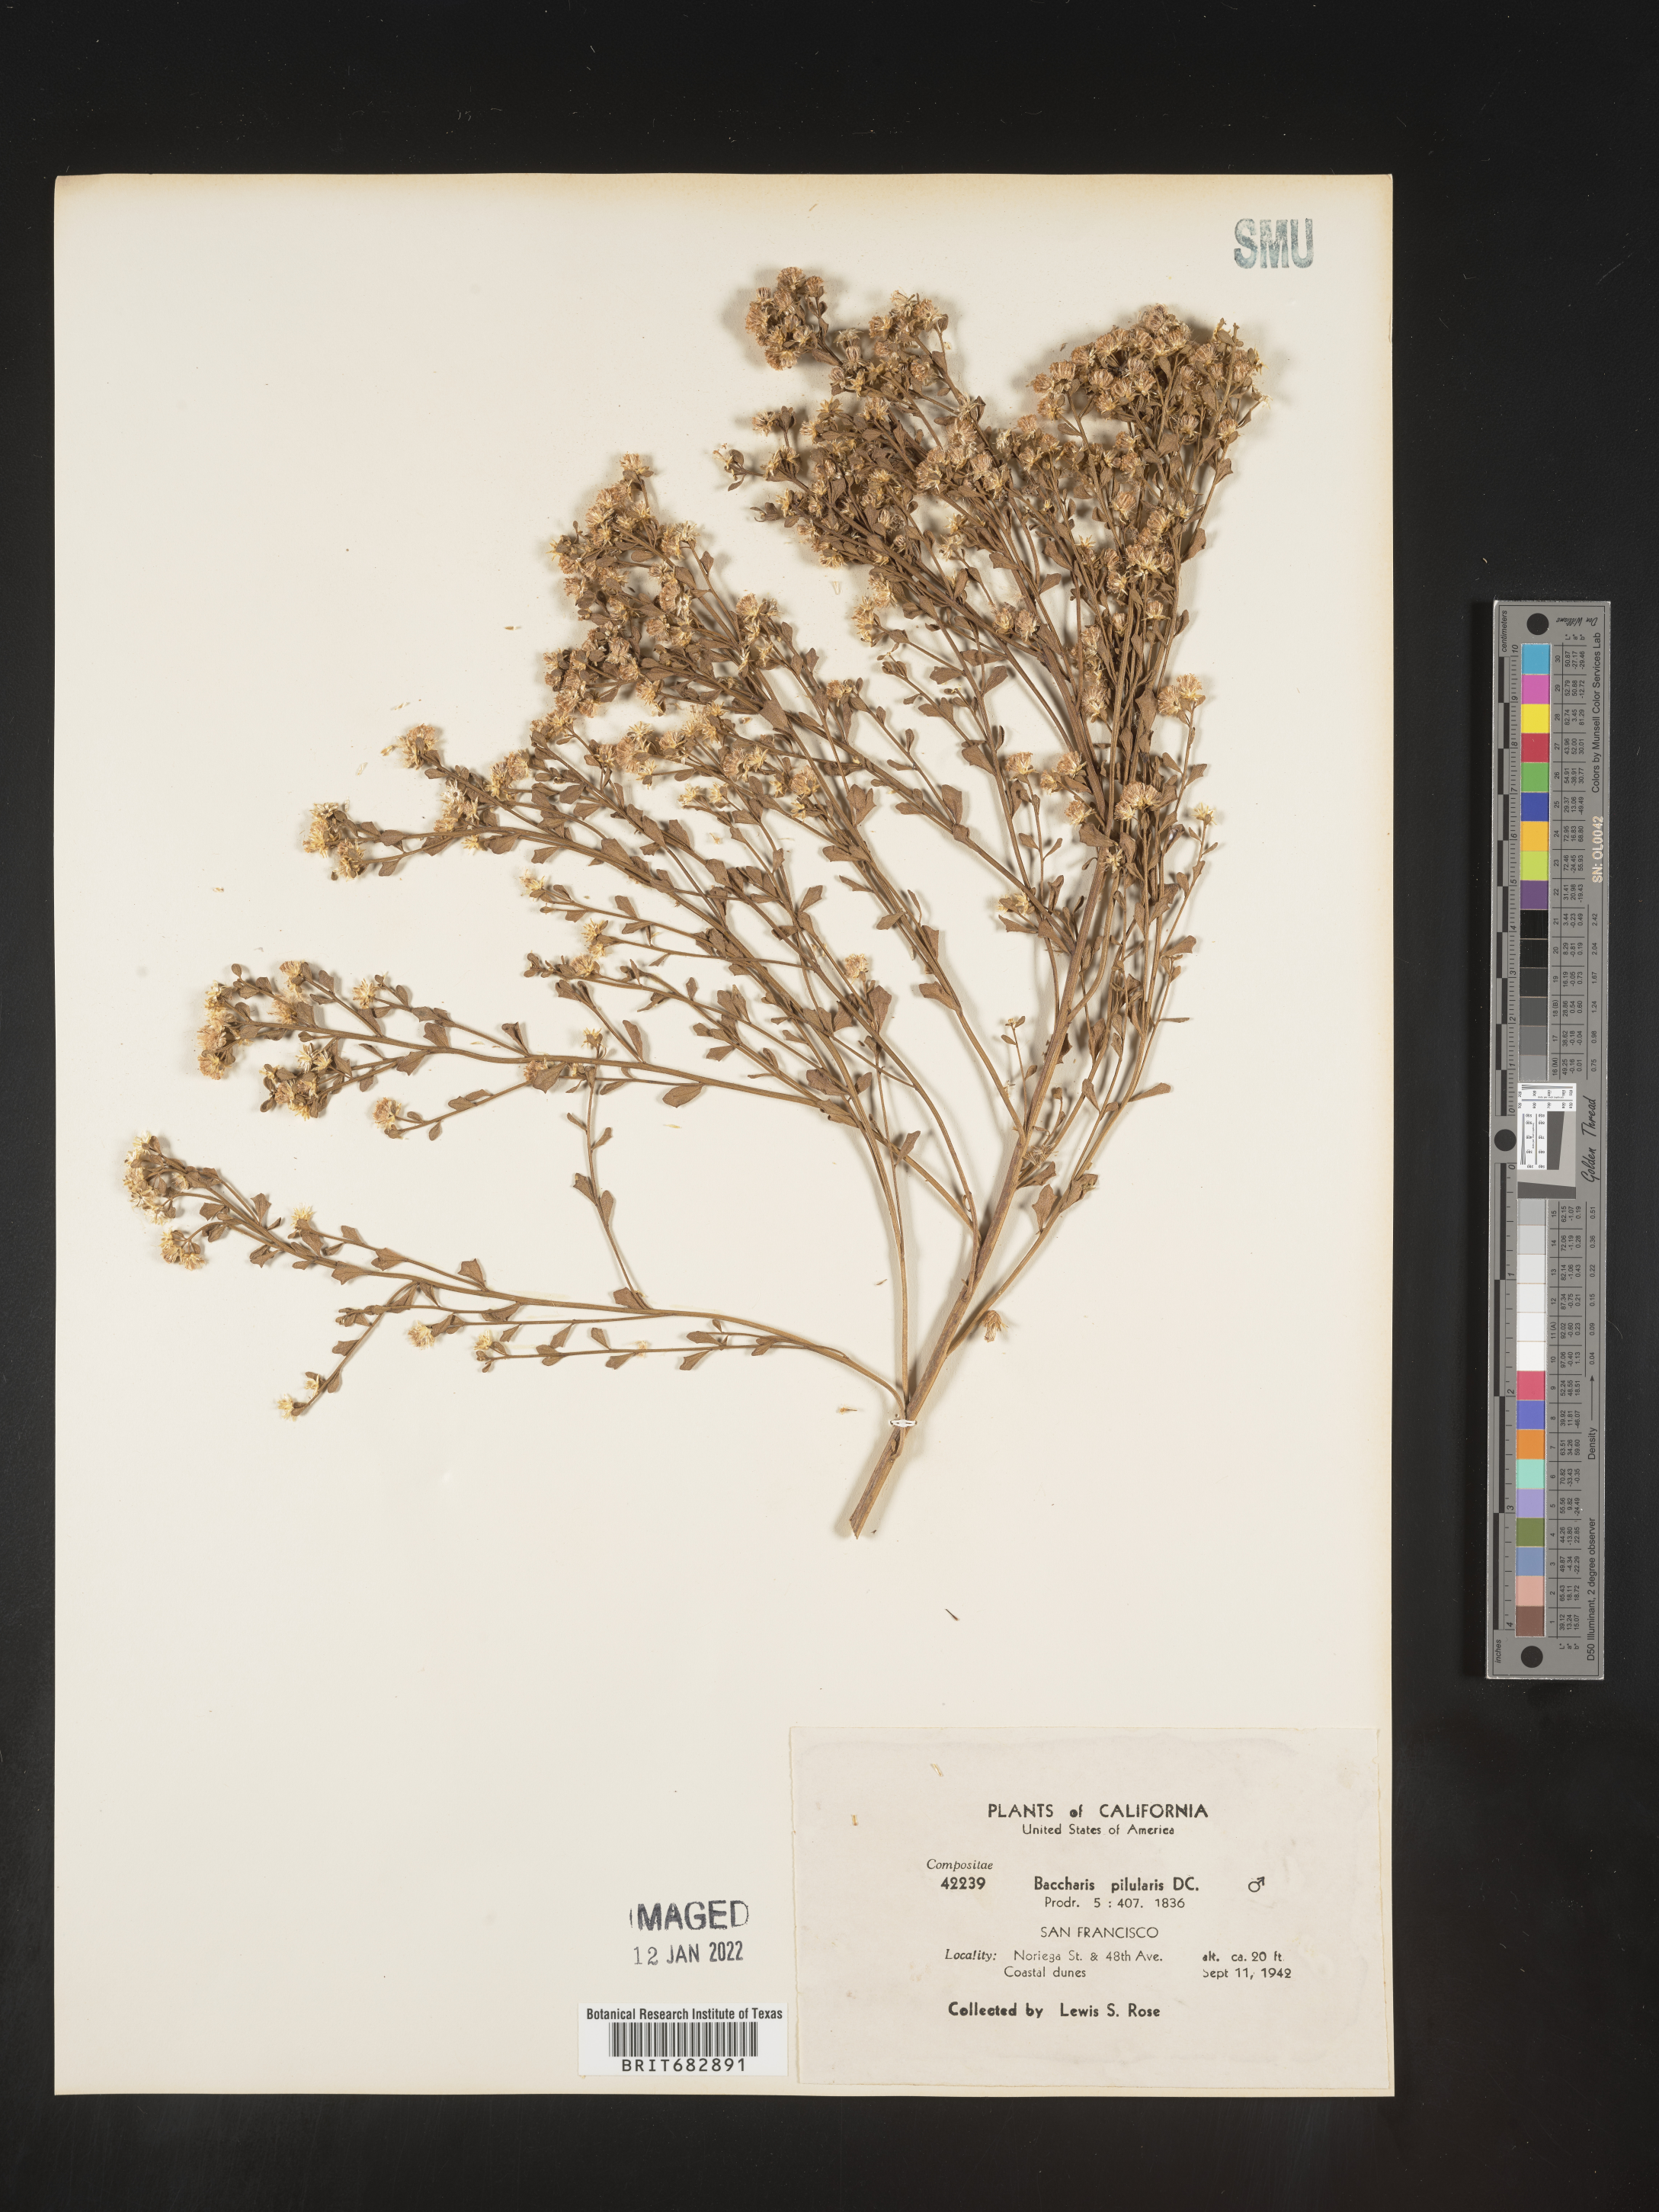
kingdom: Plantae
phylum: Tracheophyta
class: Magnoliopsida
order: Asterales
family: Asteraceae
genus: Baccharis
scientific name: Baccharis pilularis
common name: Coyotebrush
